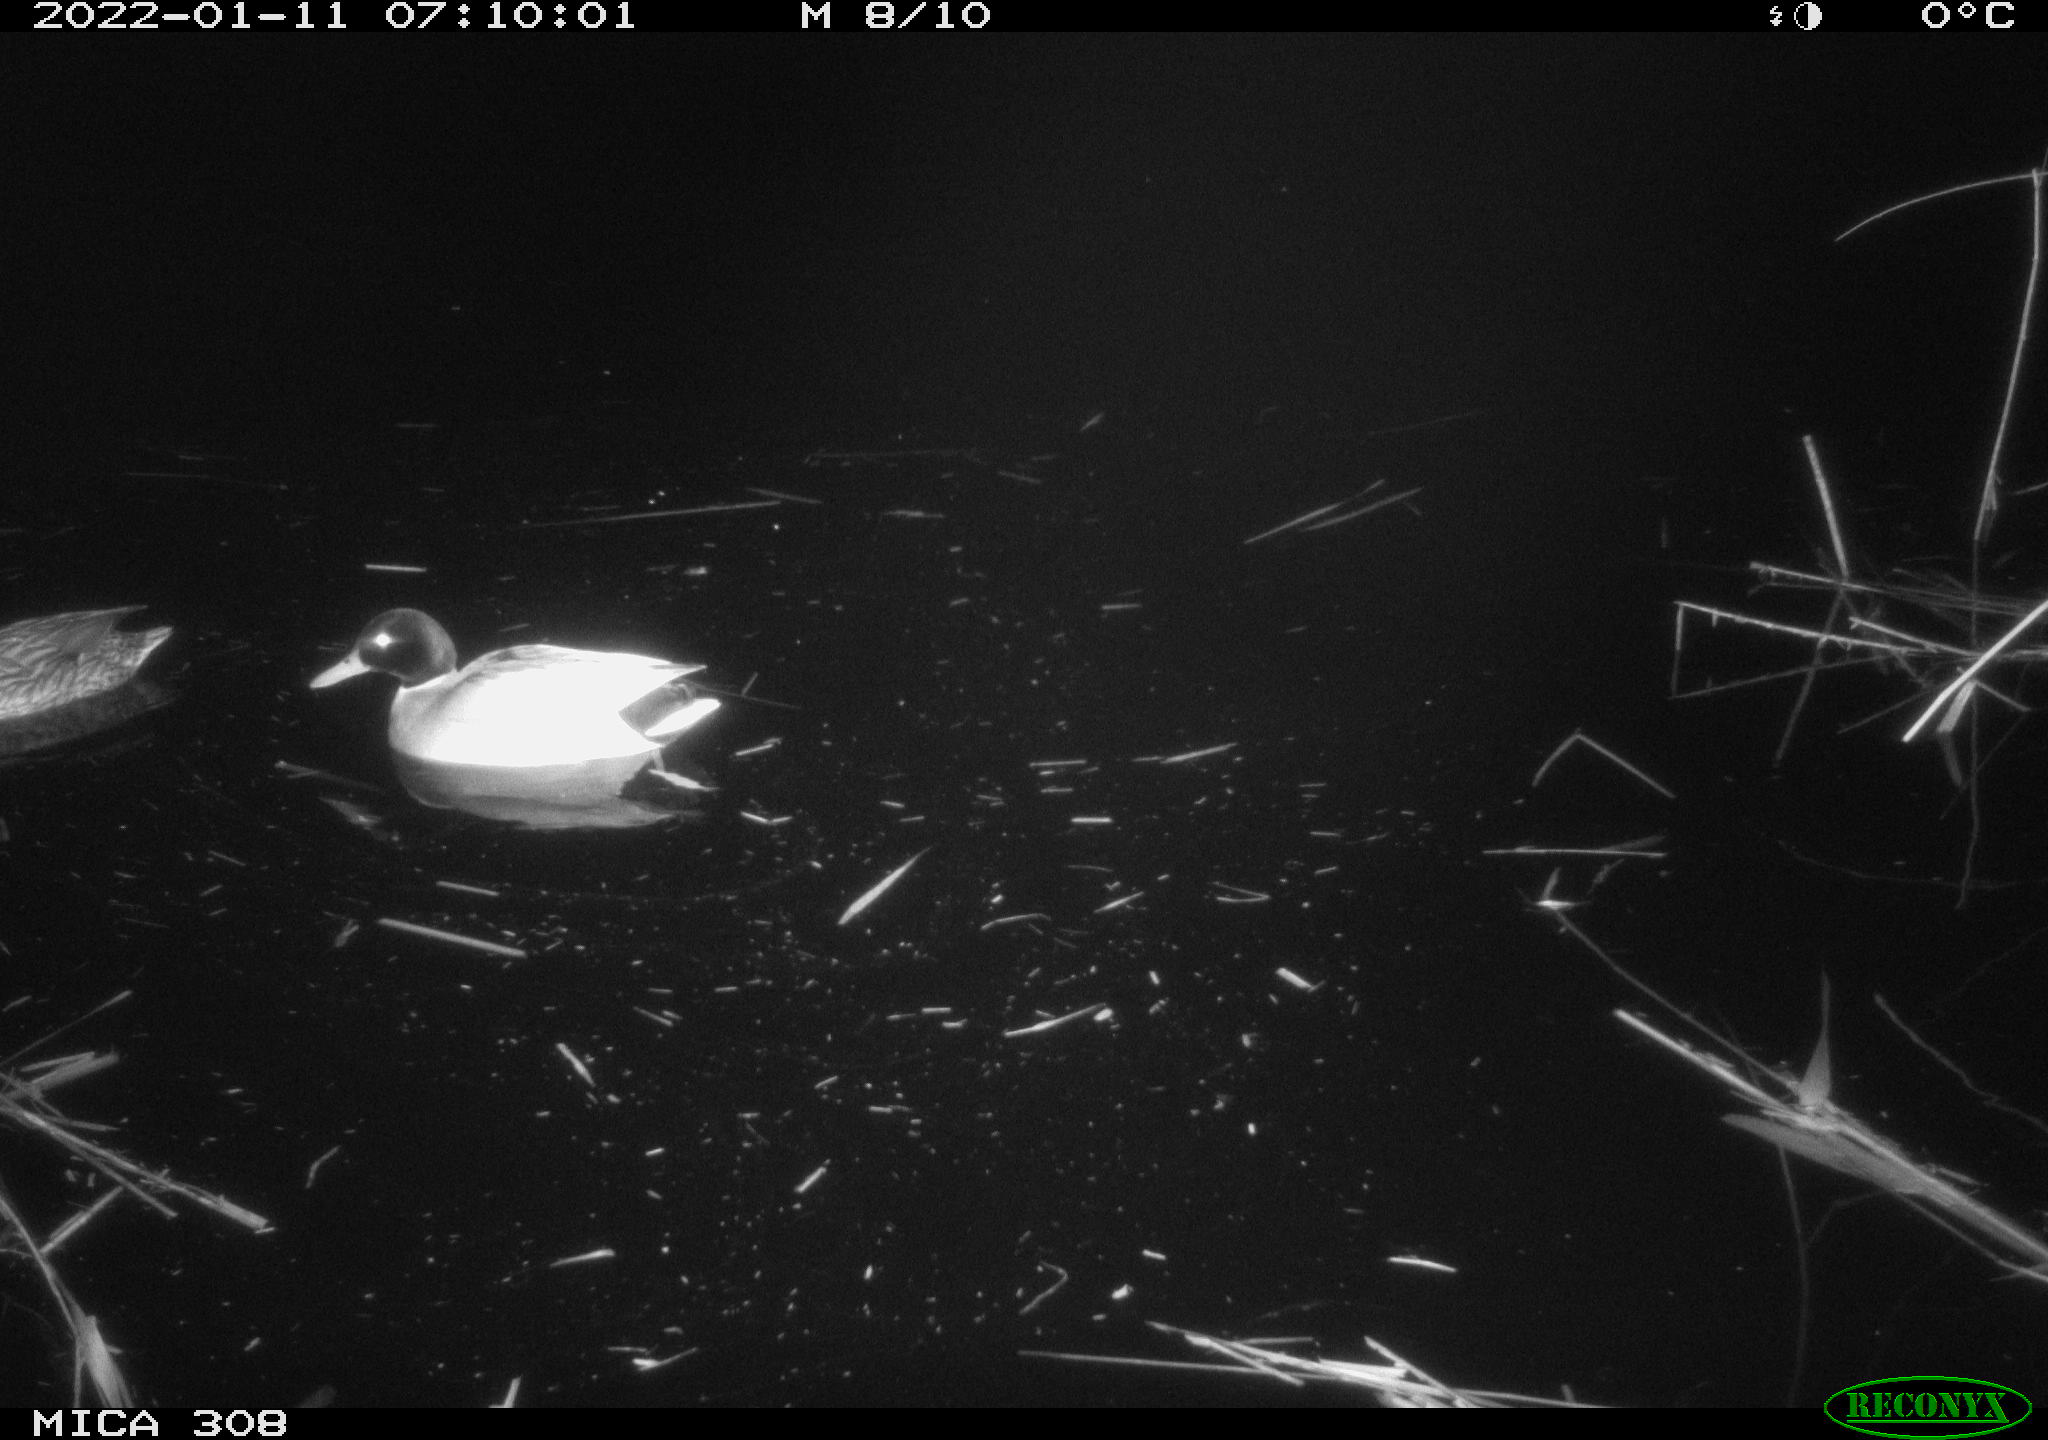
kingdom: Animalia
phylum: Chordata
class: Aves
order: Anseriformes
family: Anatidae
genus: Anas
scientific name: Anas
